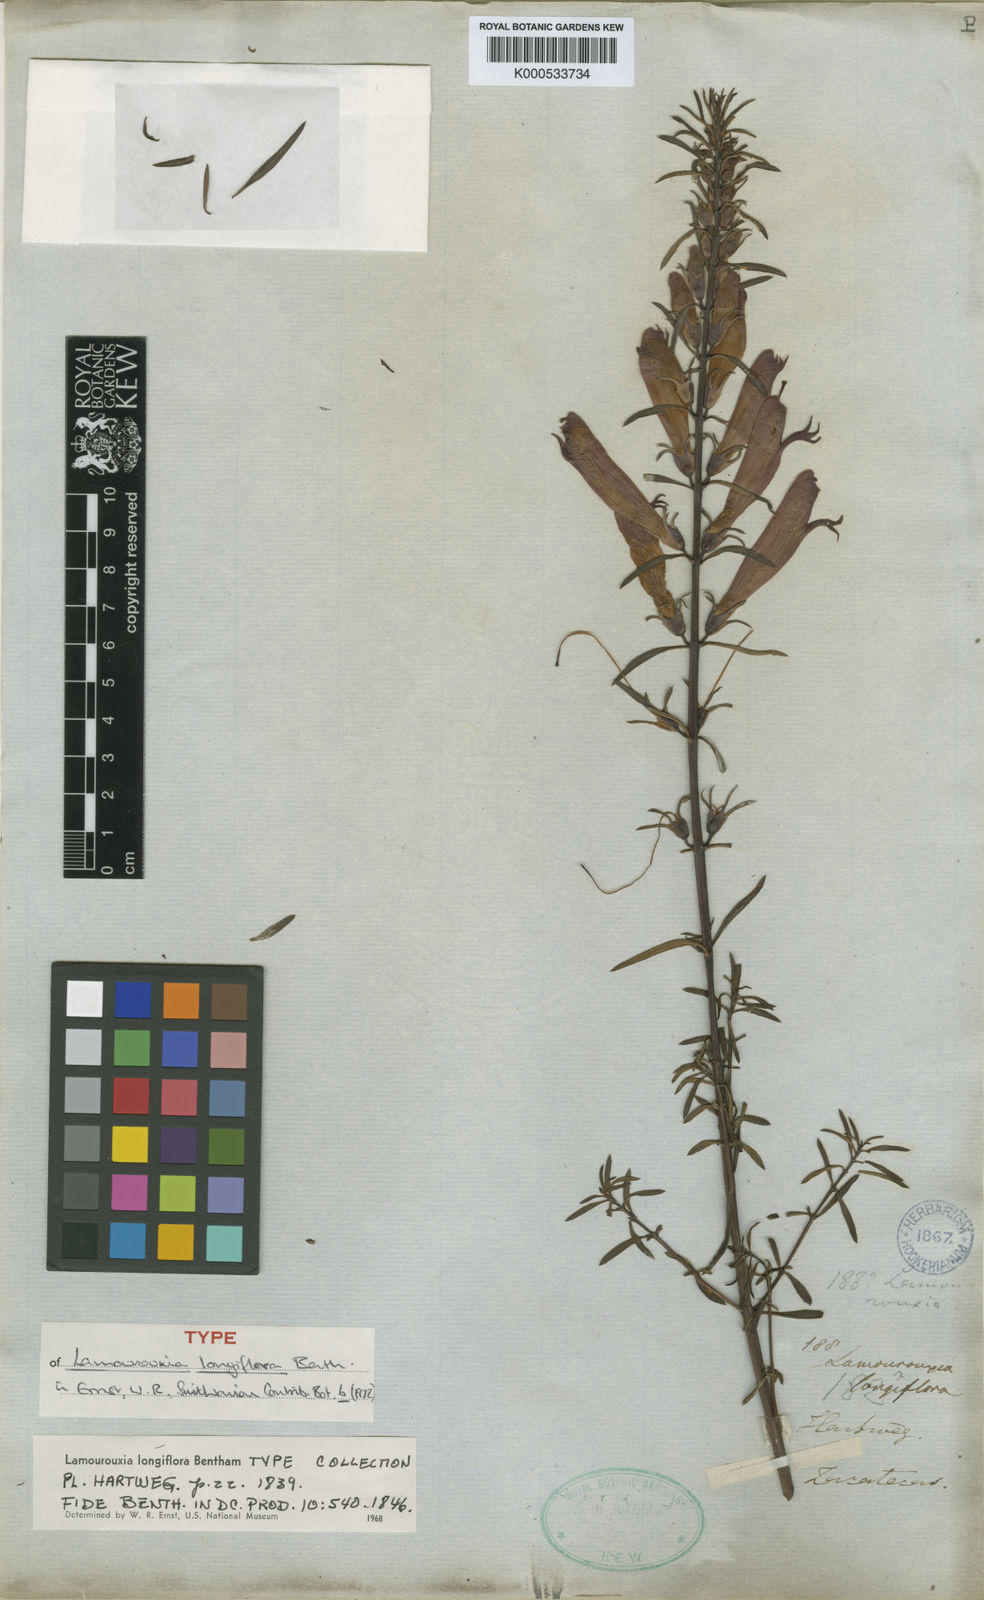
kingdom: Plantae
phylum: Tracheophyta
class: Magnoliopsida
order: Lamiales
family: Orobanchaceae
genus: Lamourouxia
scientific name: Lamourouxia longiflora
